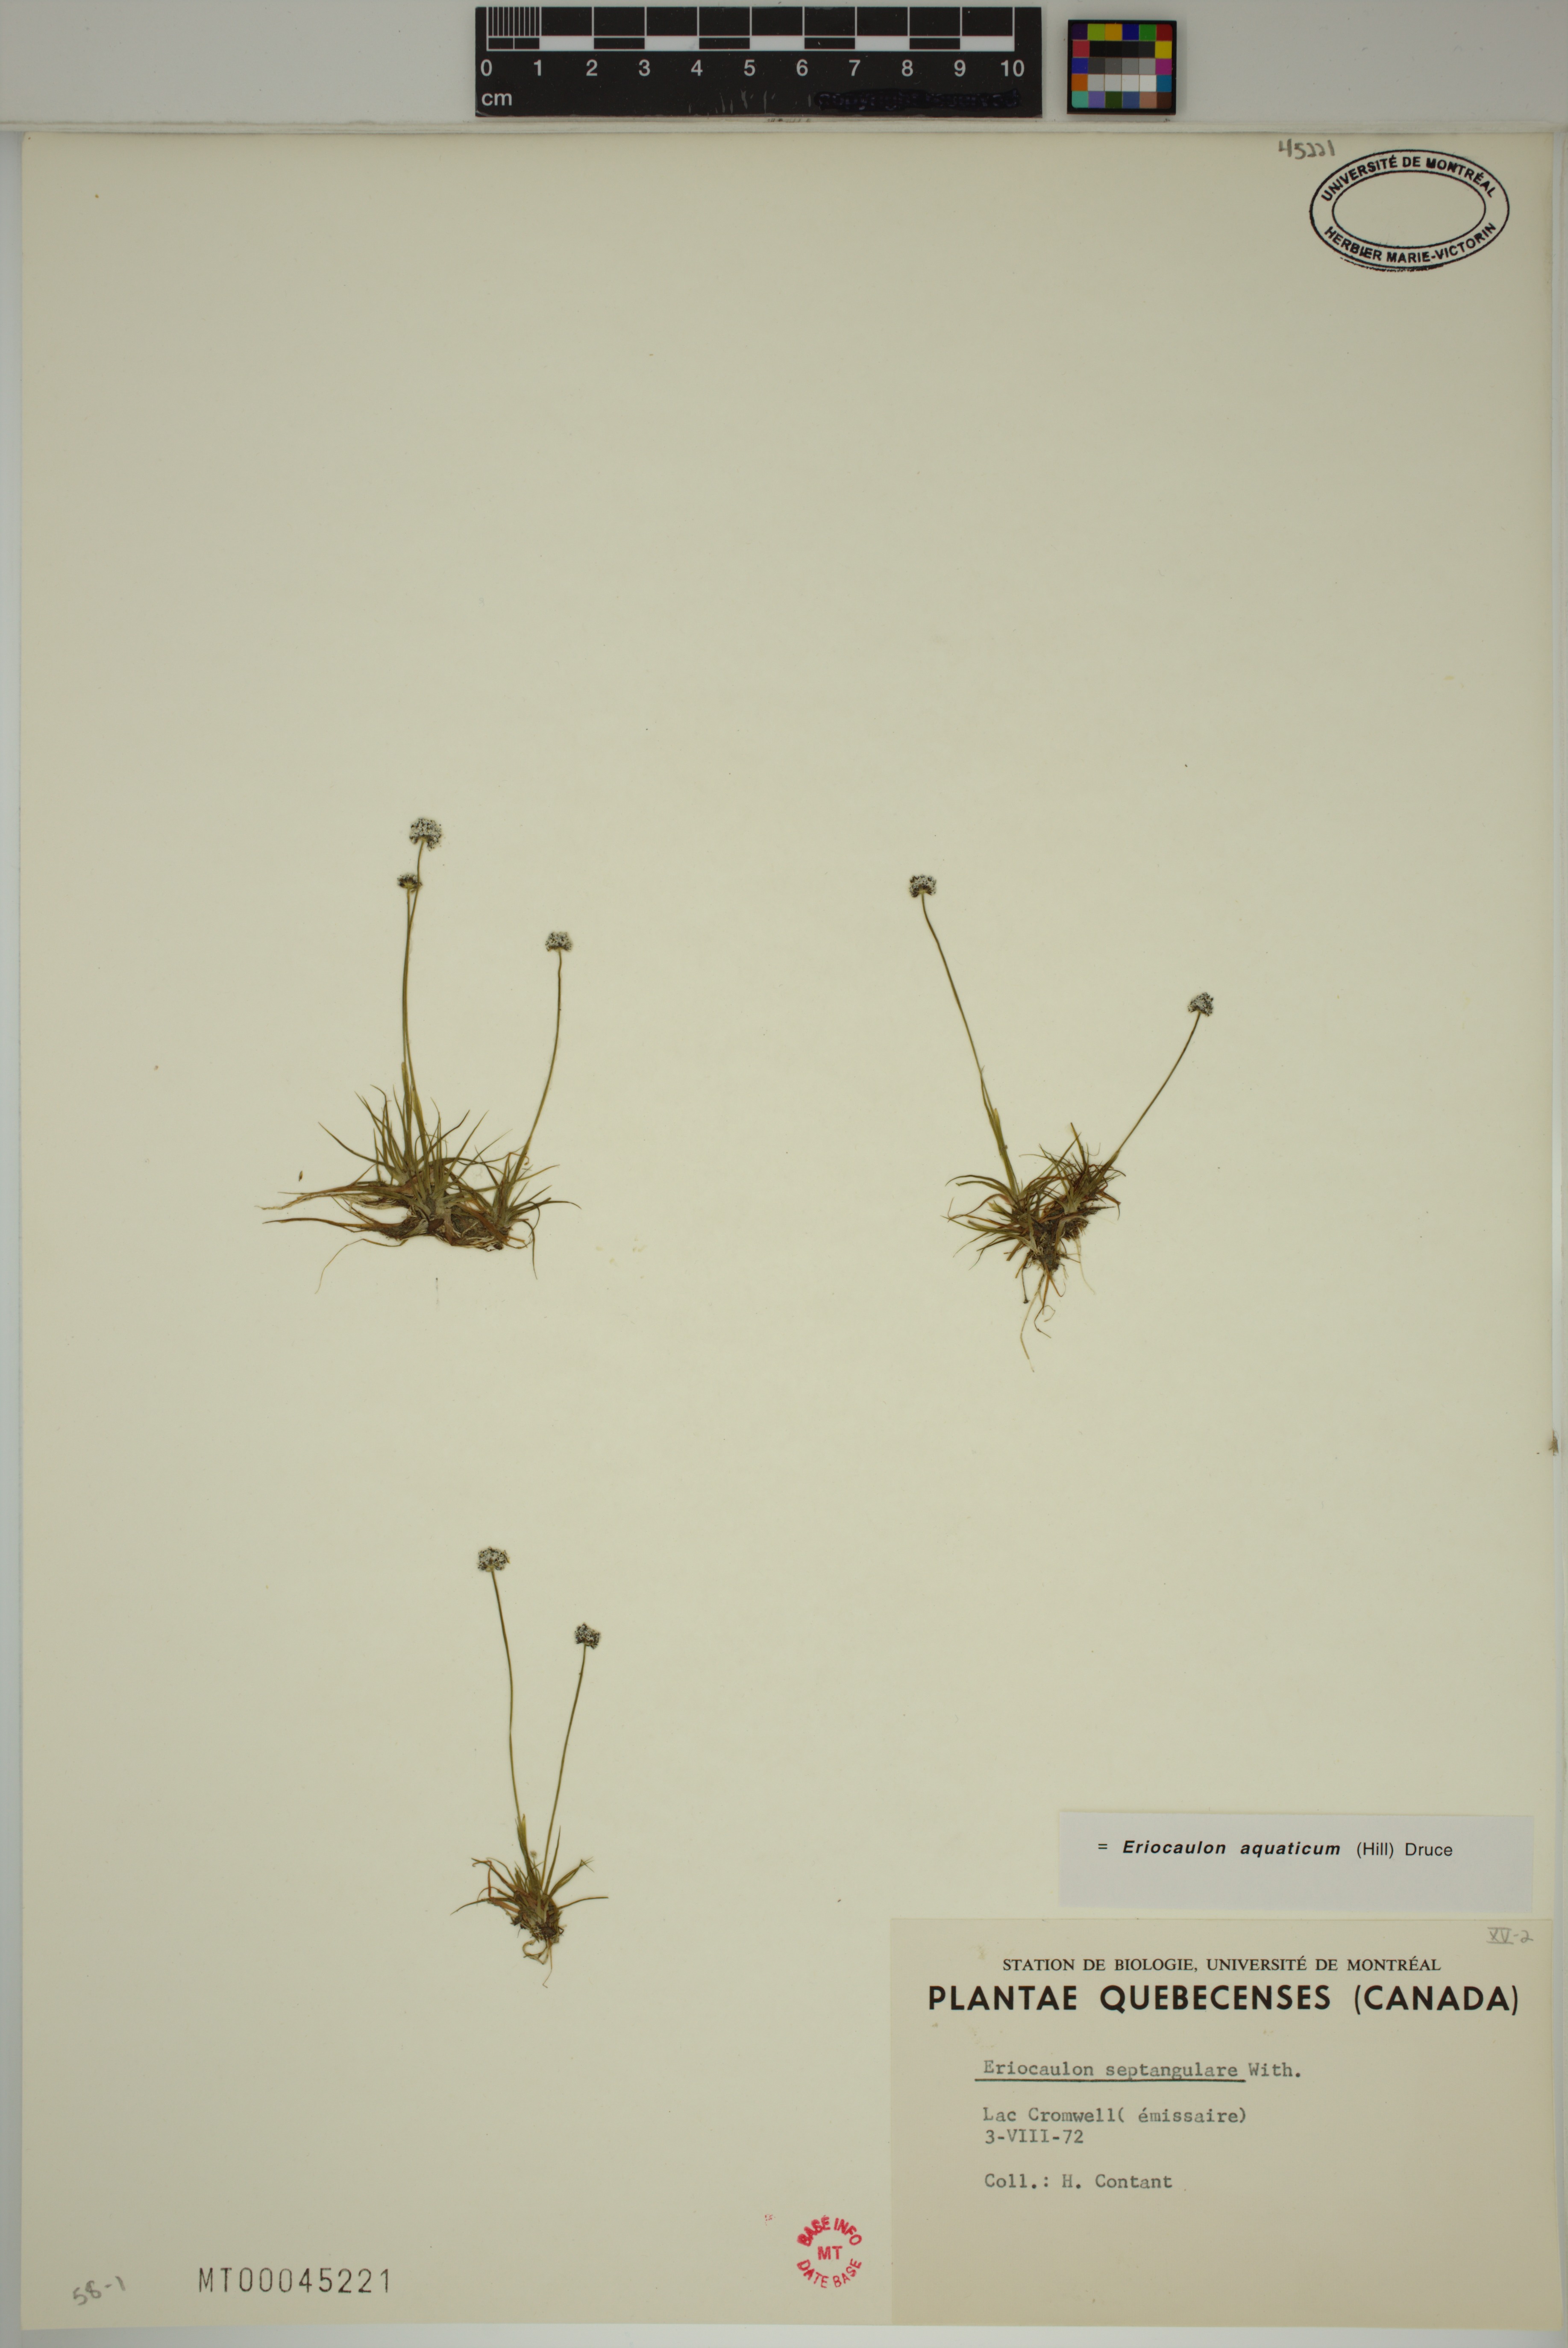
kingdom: Plantae
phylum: Tracheophyta
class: Liliopsida
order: Poales
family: Eriocaulaceae
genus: Eriocaulon
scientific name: Eriocaulon aquaticum
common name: Pipewort
